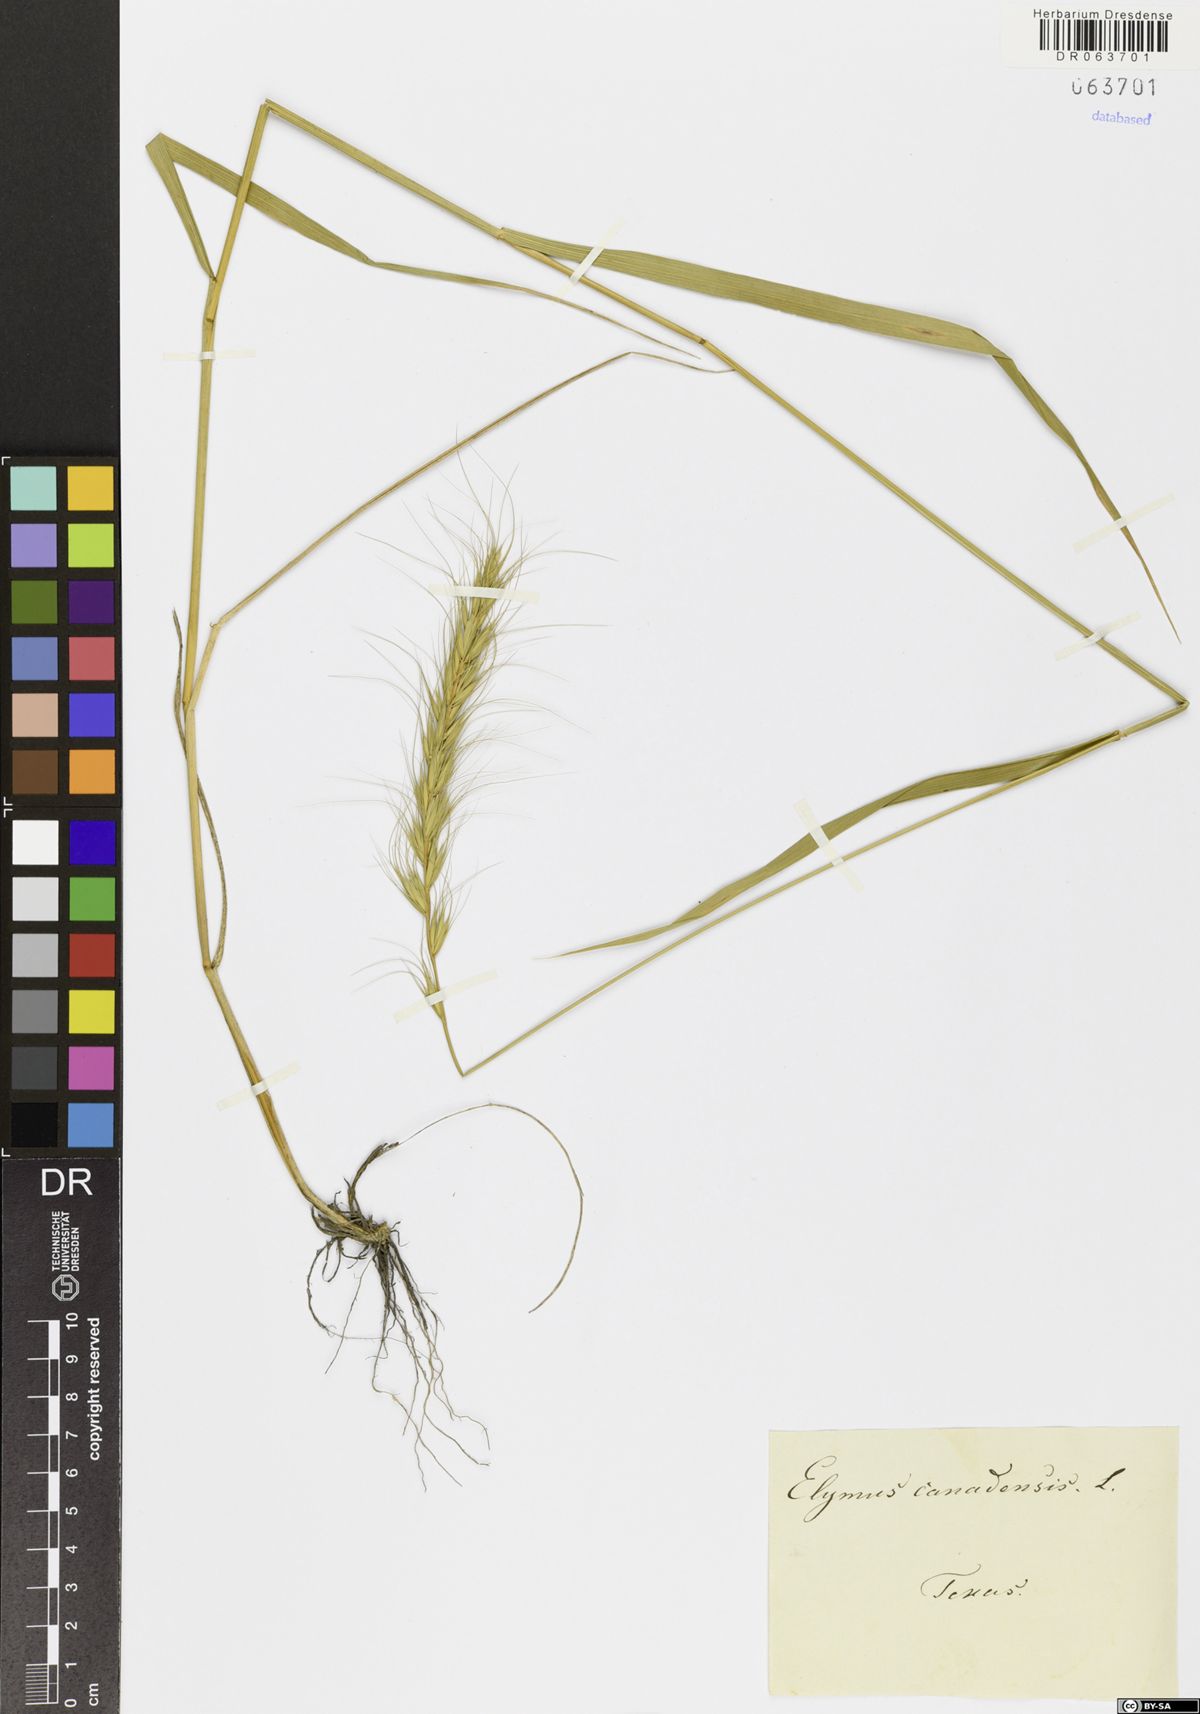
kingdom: Plantae
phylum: Tracheophyta
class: Liliopsida
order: Poales
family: Poaceae
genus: Elymus
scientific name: Elymus canadensis
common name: Canada wild rye
